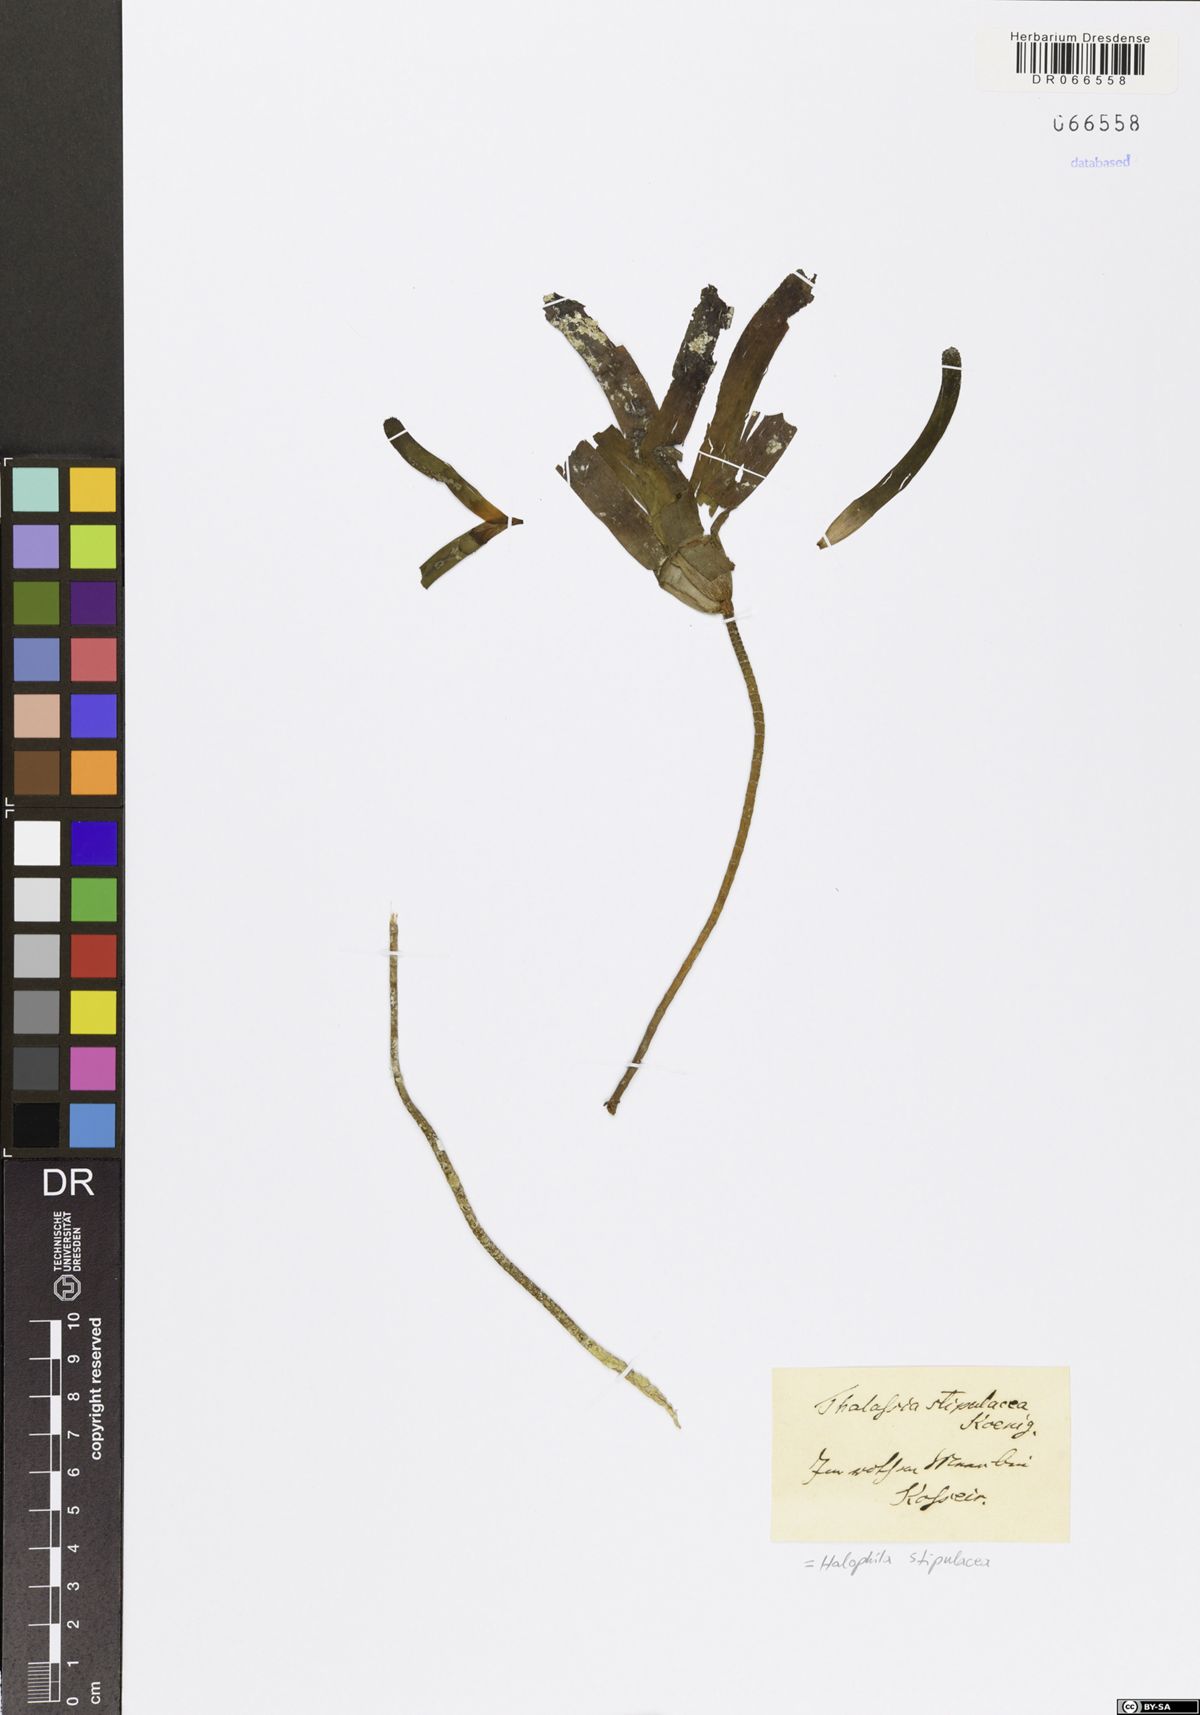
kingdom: Plantae
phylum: Tracheophyta
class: Liliopsida
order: Alismatales
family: Hydrocharitaceae
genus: Halophila
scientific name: Halophila stipulacea
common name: Species code: hs
